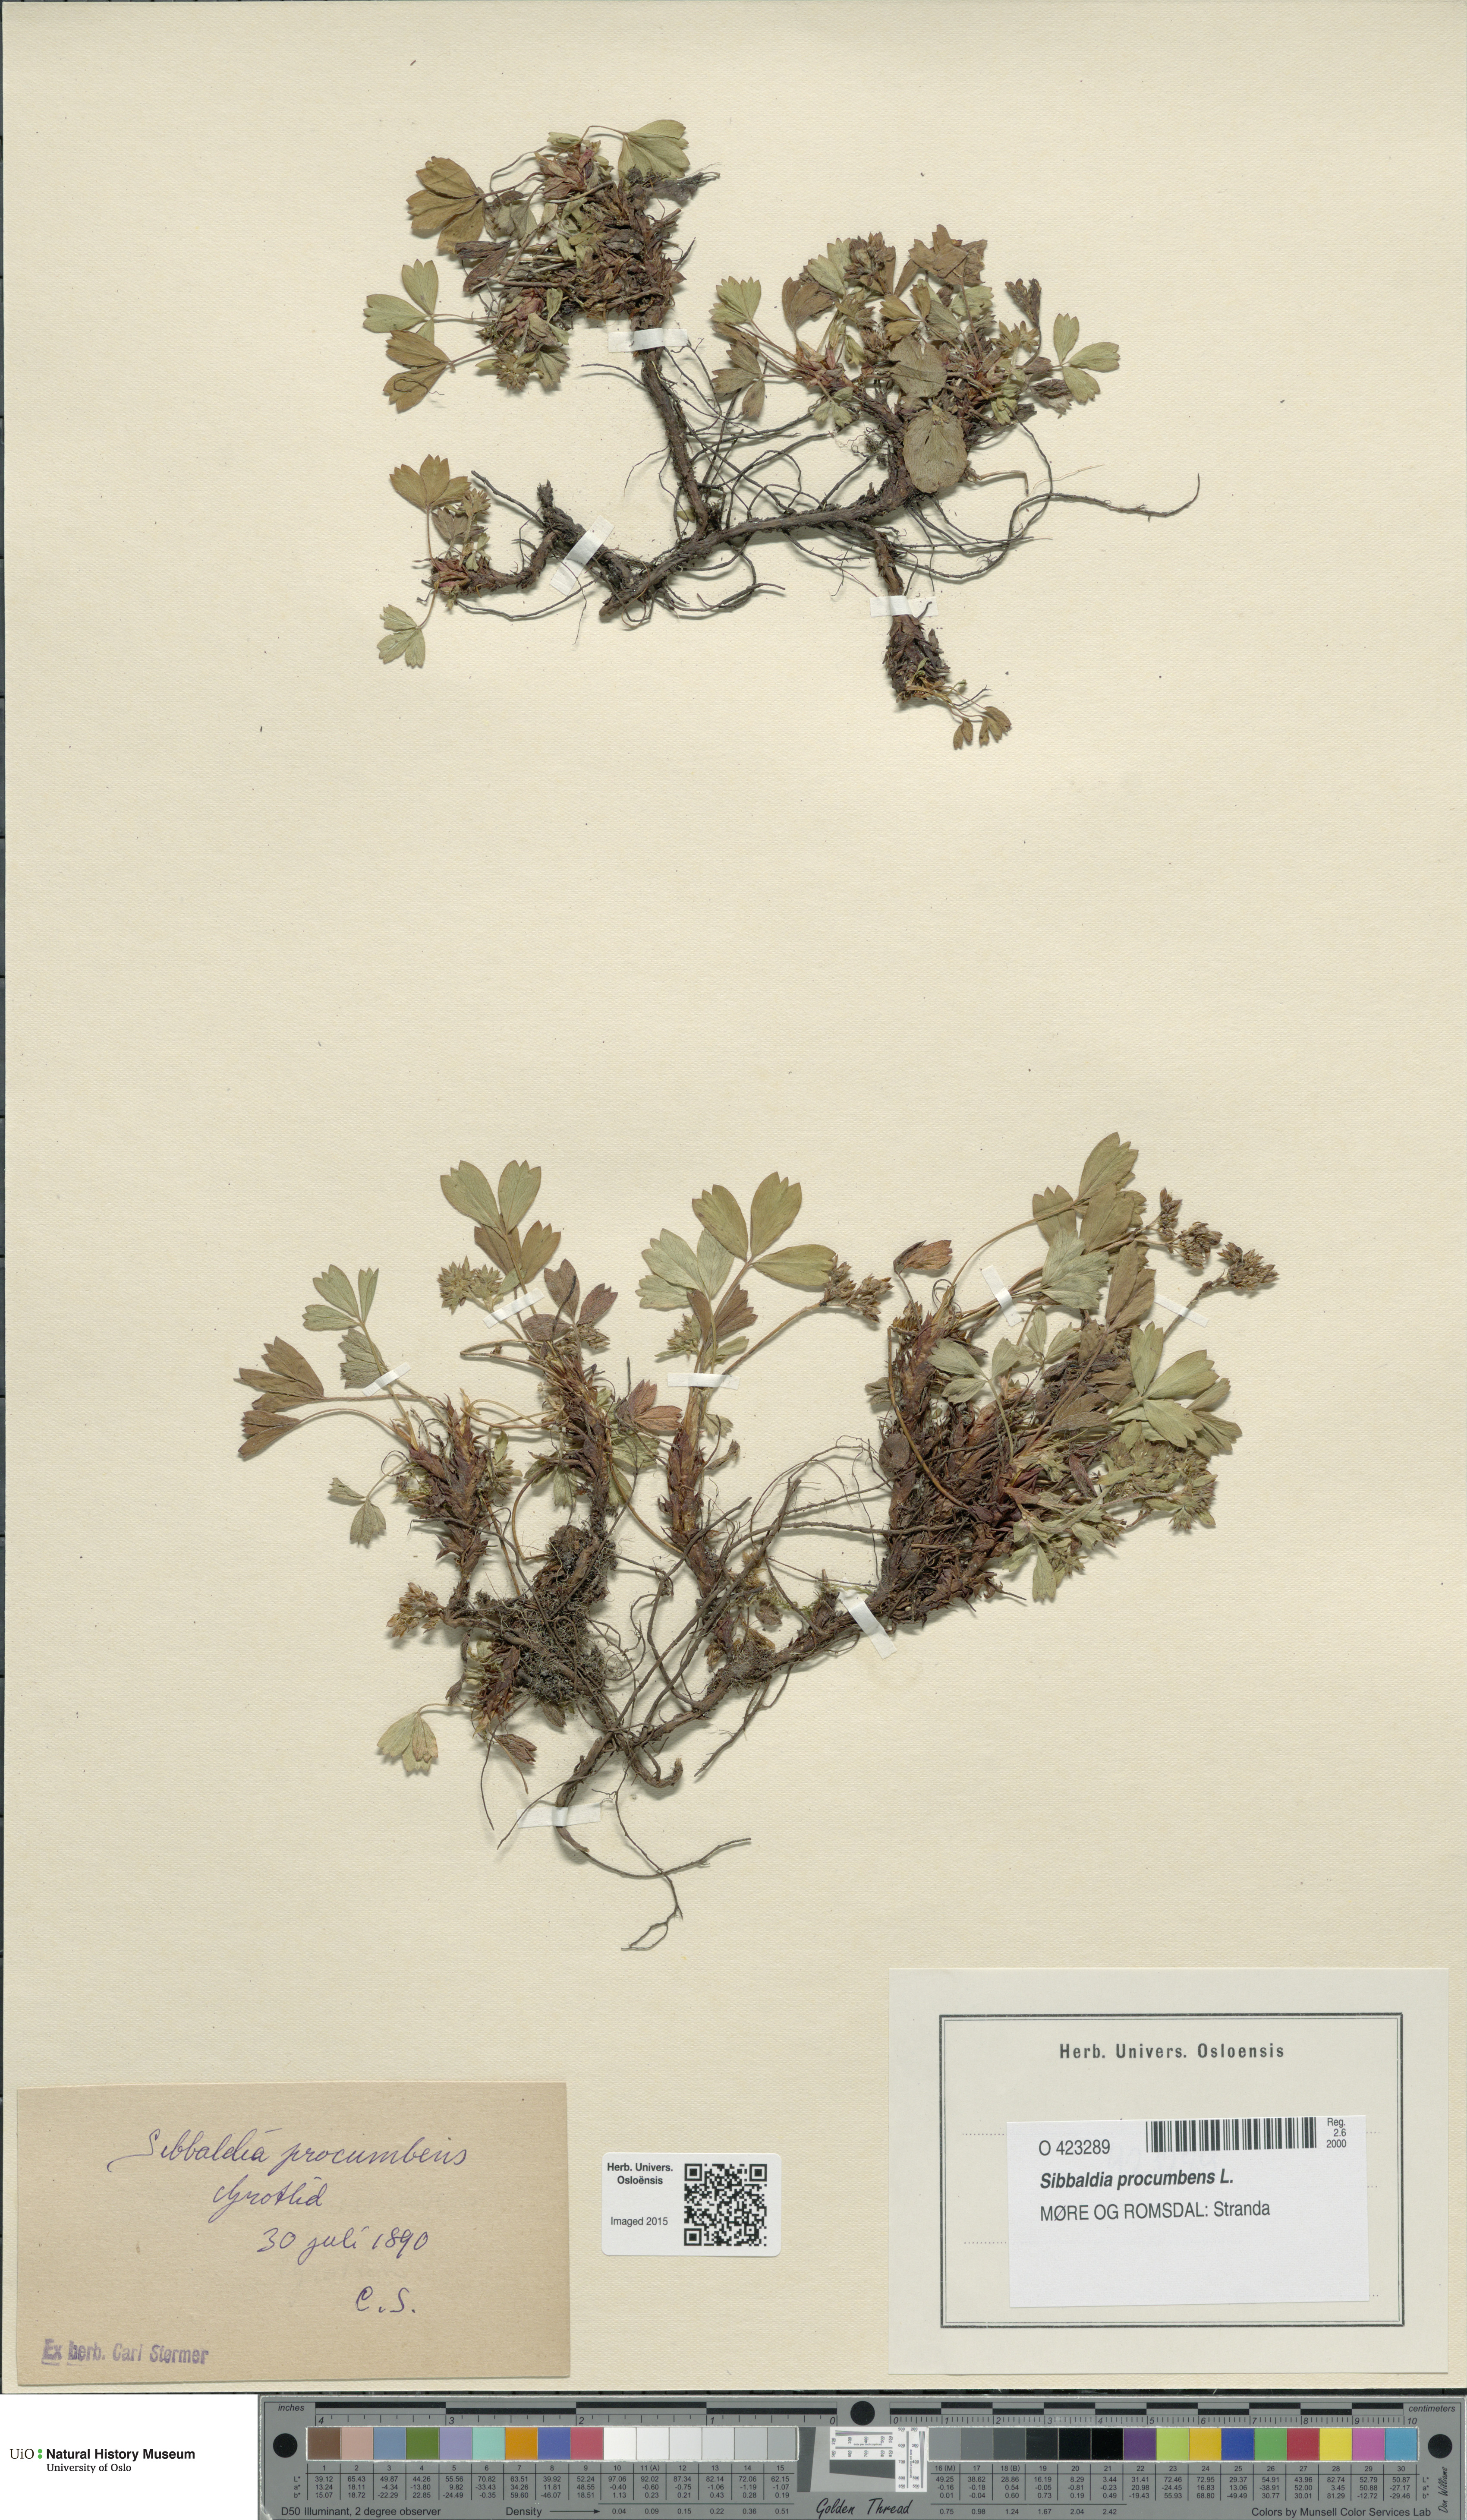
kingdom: Plantae
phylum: Tracheophyta
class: Magnoliopsida
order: Rosales
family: Rosaceae
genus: Sibbaldia
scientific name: Sibbaldia procumbens
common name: Creeping sibbaldia
